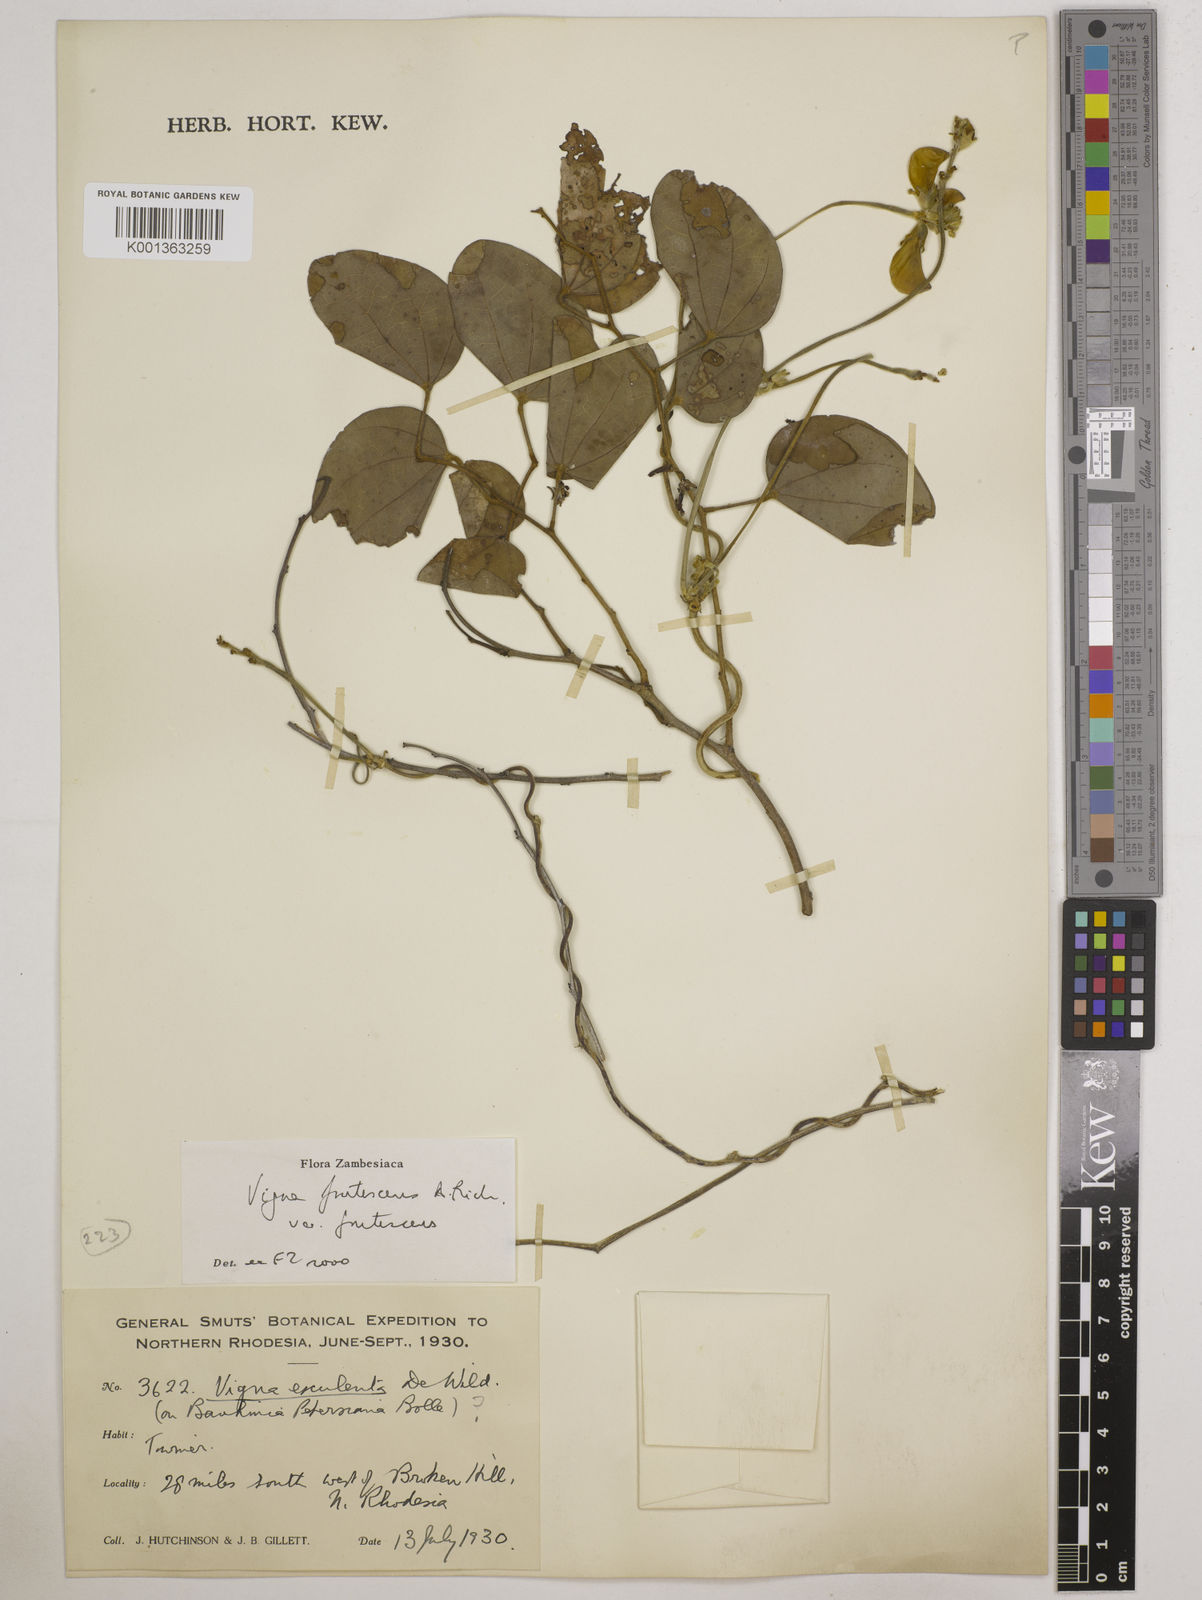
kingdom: Plantae
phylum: Tracheophyta
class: Magnoliopsida
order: Fabales
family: Fabaceae
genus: Vigna
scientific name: Vigna
